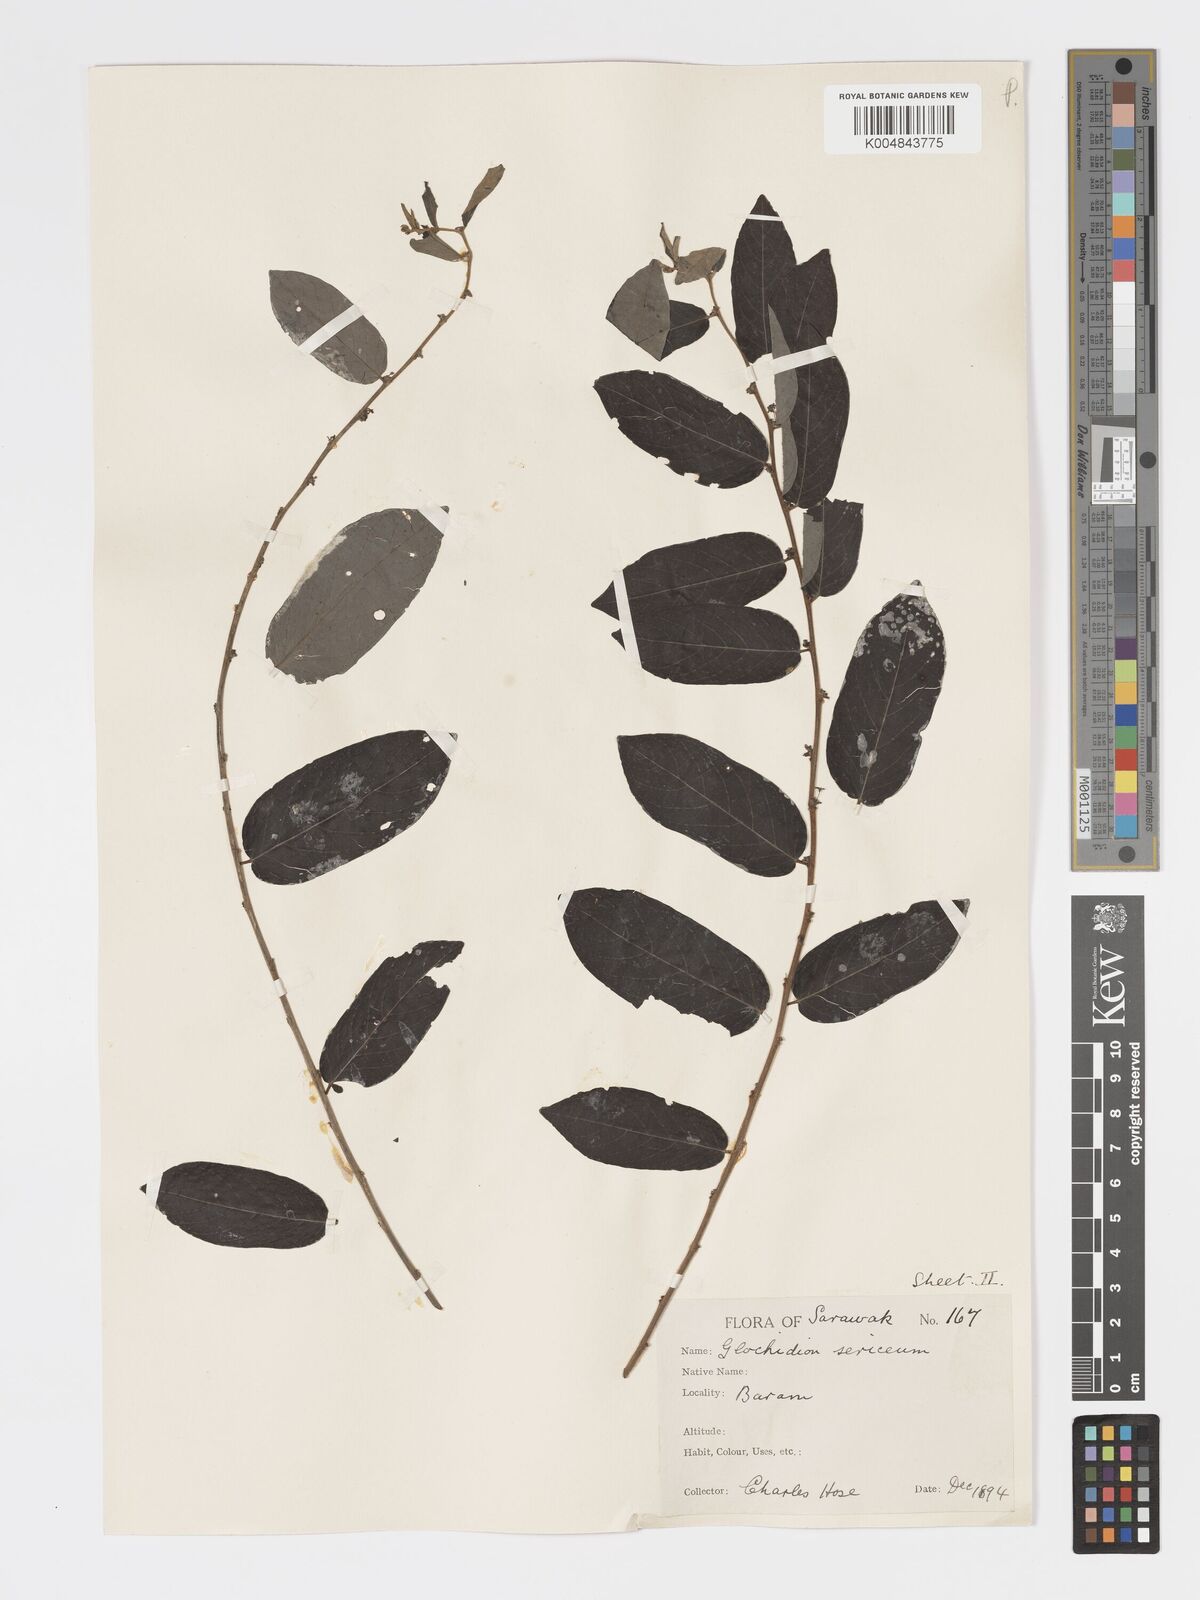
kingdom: Plantae
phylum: Tracheophyta
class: Magnoliopsida
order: Malpighiales
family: Phyllanthaceae
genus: Glochidion
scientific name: Glochidion sericeum
